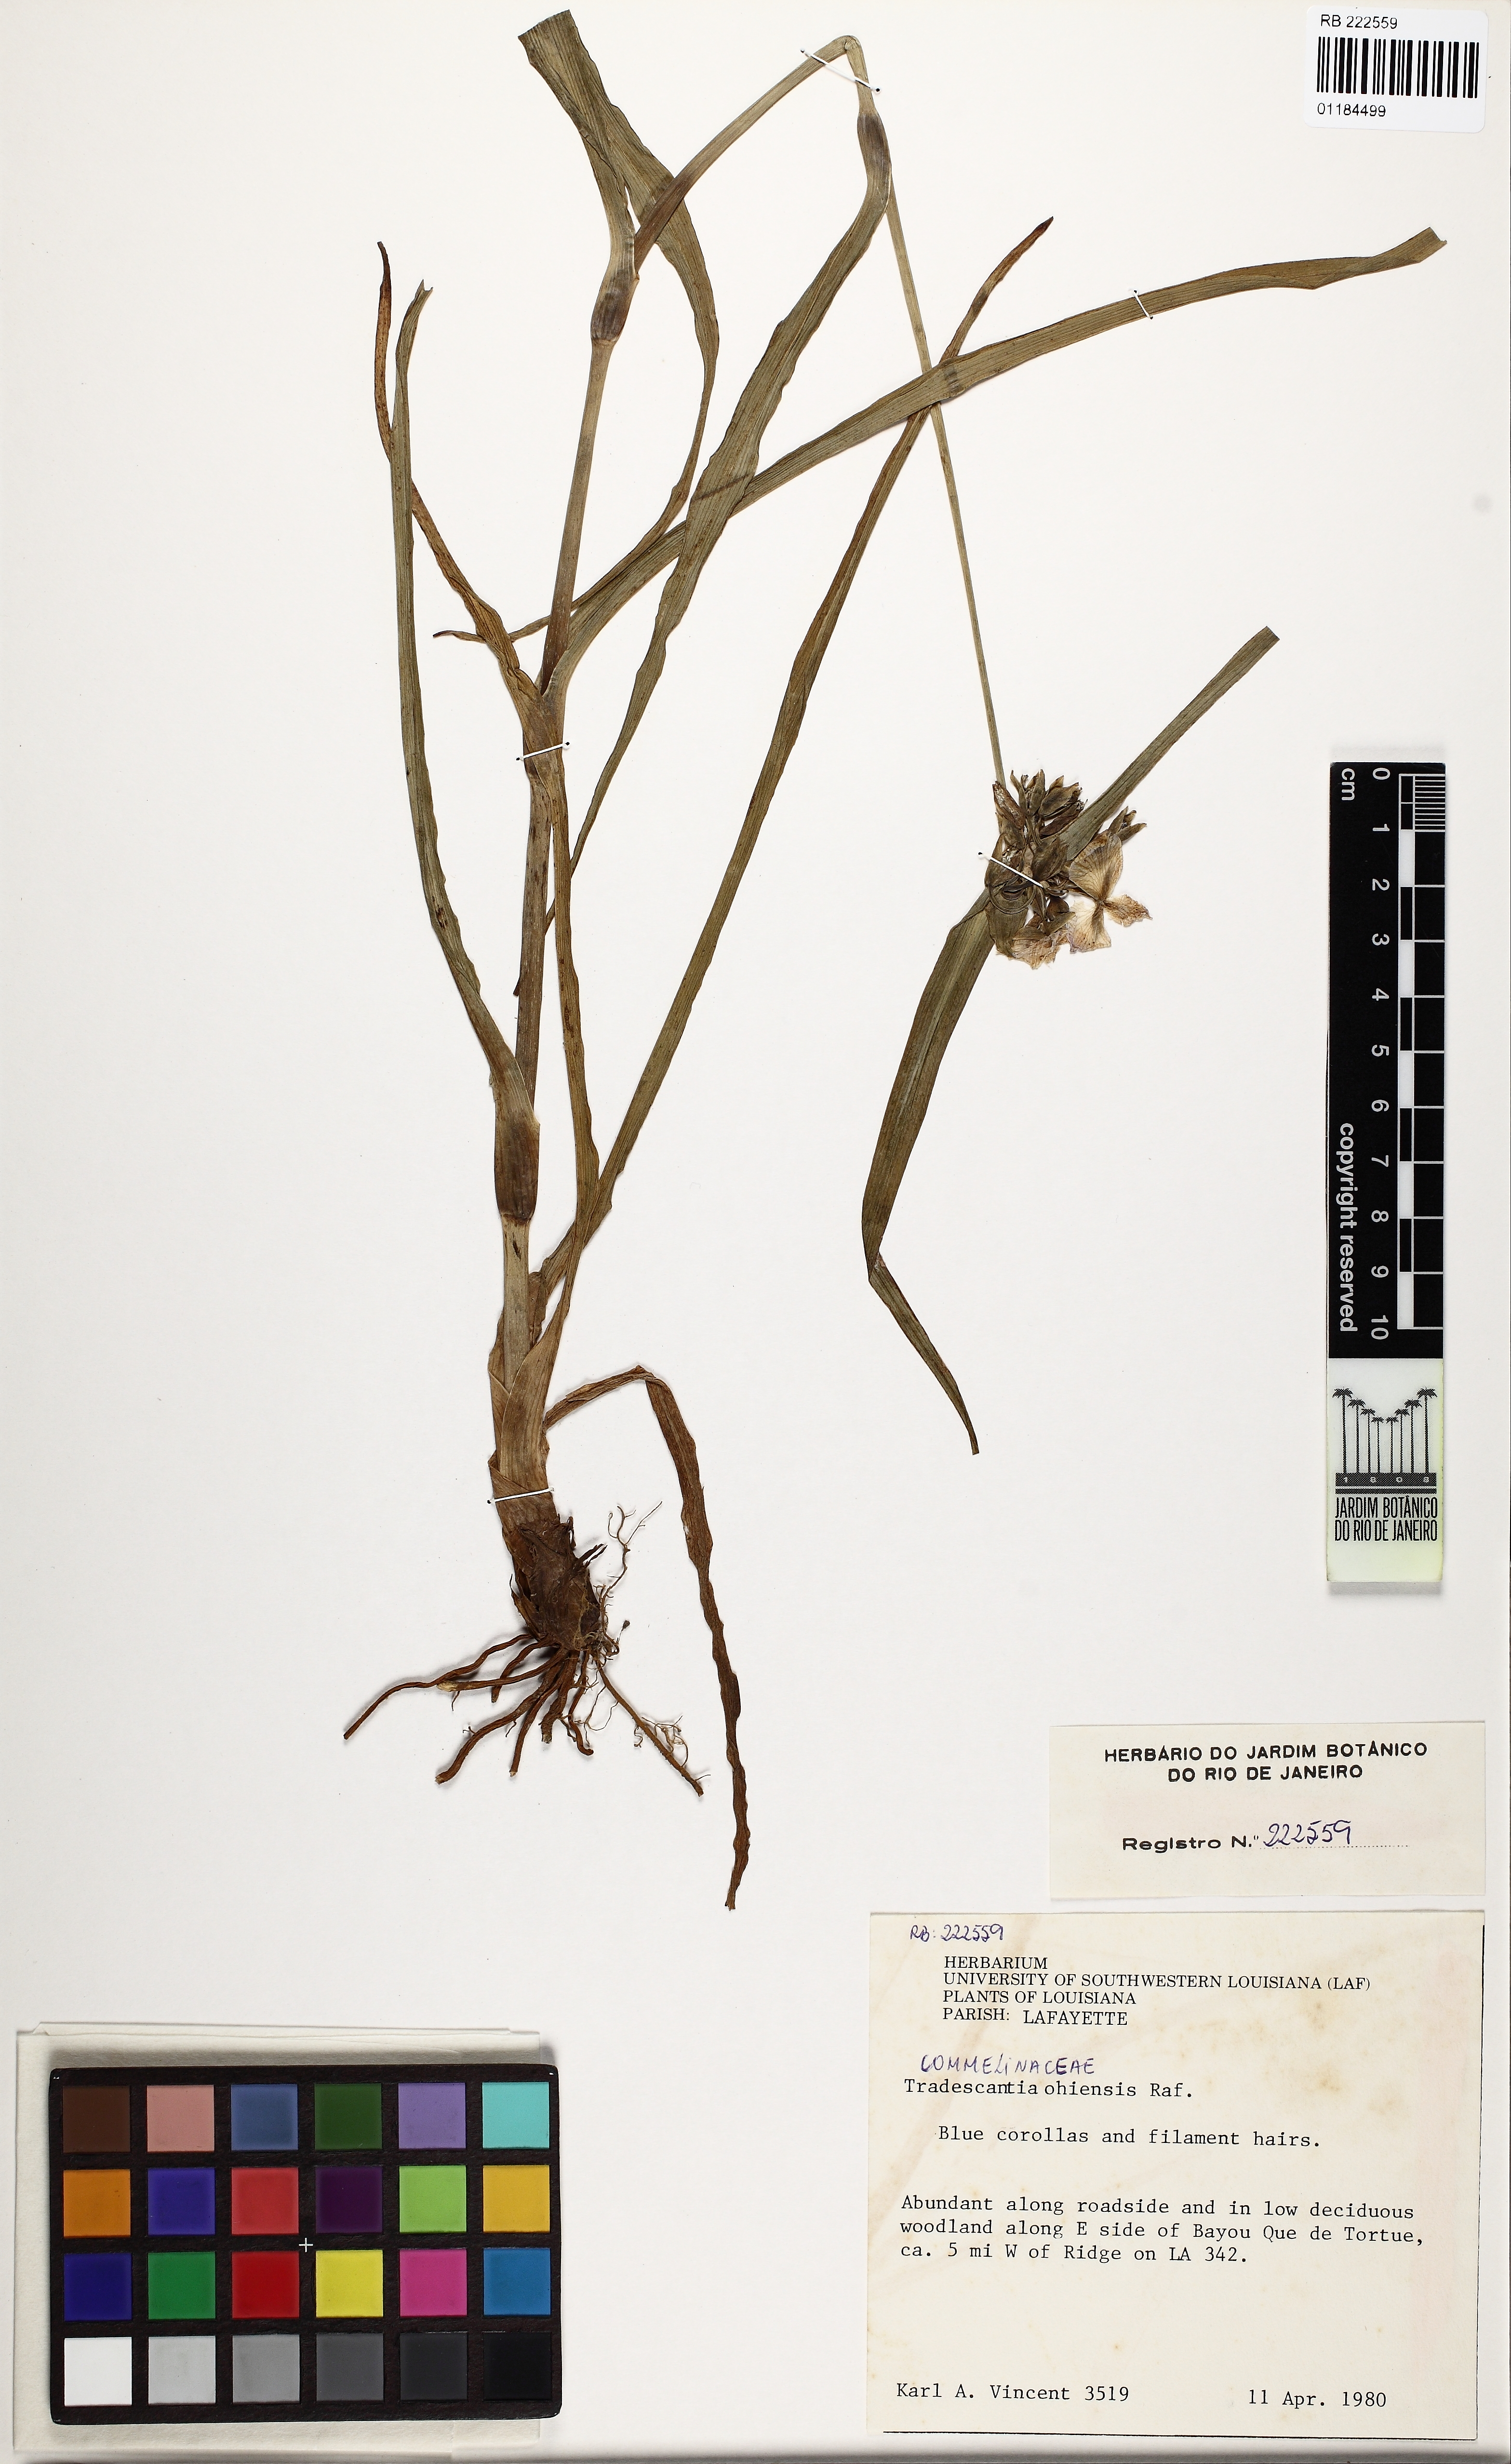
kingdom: Plantae
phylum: Tracheophyta
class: Liliopsida
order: Commelinales
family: Commelinaceae
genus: Tradescantia
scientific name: Tradescantia ohiensis
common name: Ohio spiderwort
